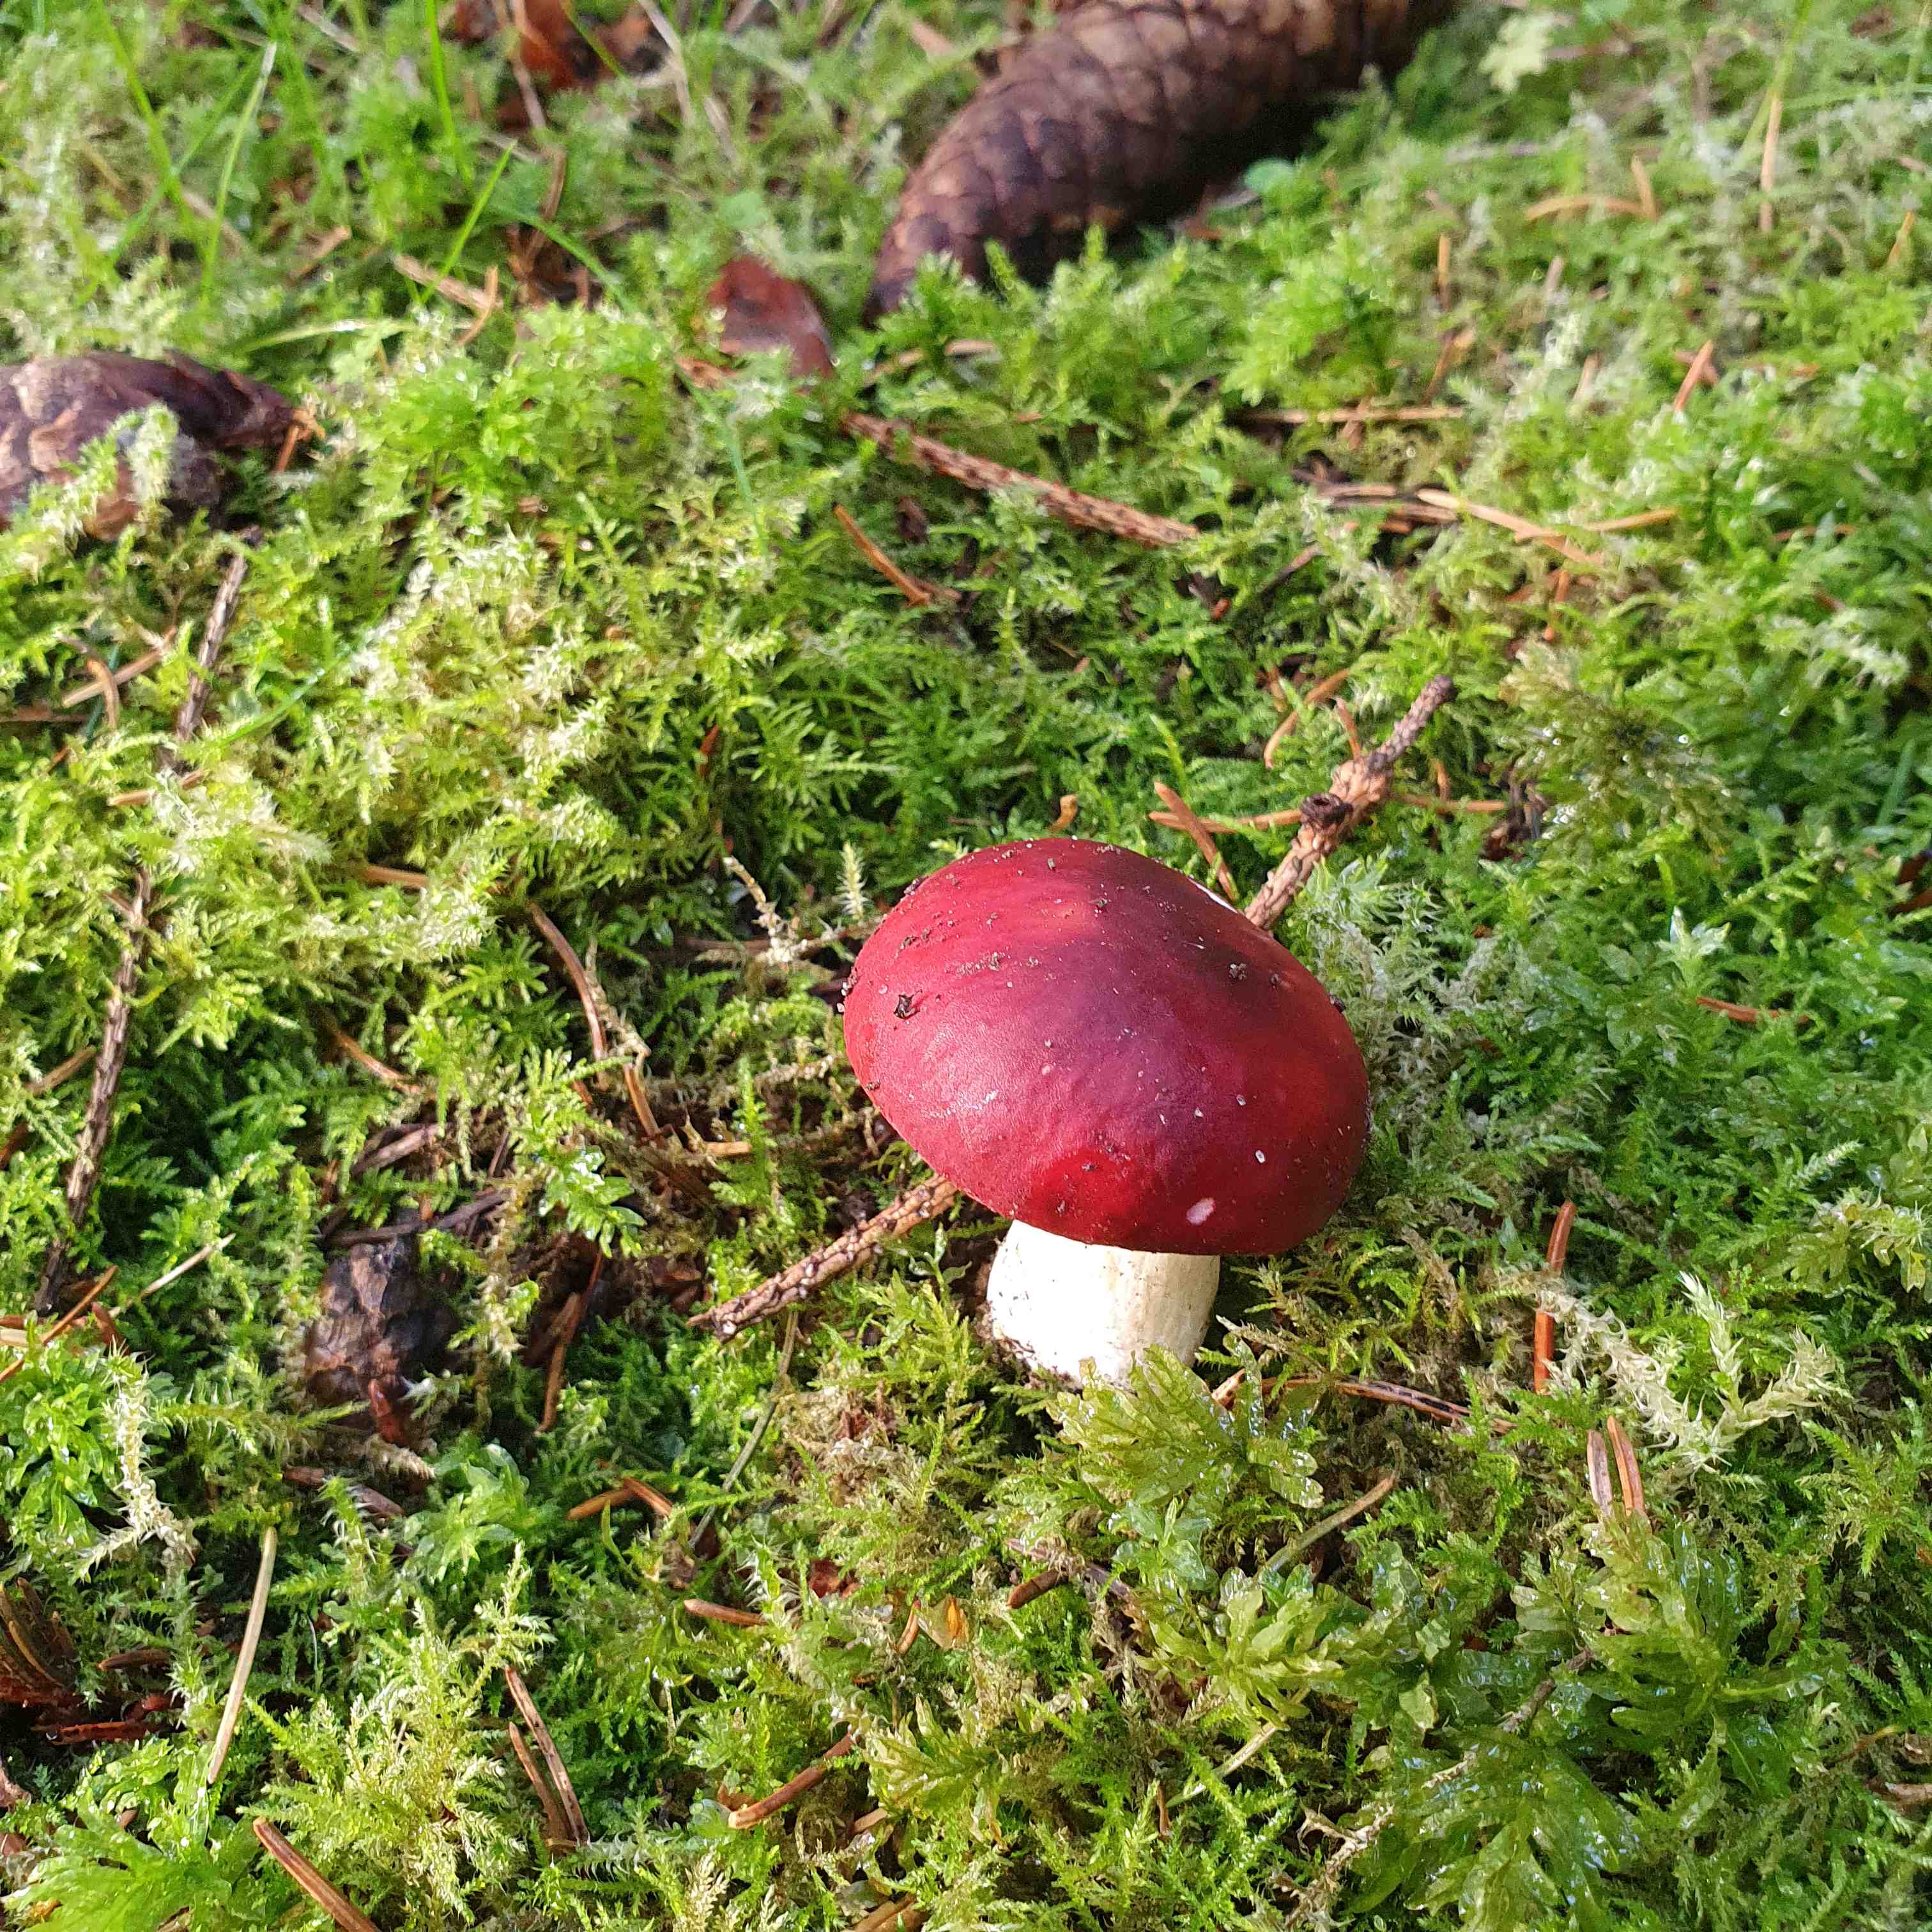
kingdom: Fungi
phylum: Basidiomycota
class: Agaricomycetes
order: Russulales
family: Russulaceae
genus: Russula
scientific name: Russula xerampelina
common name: hummer-skørhat
